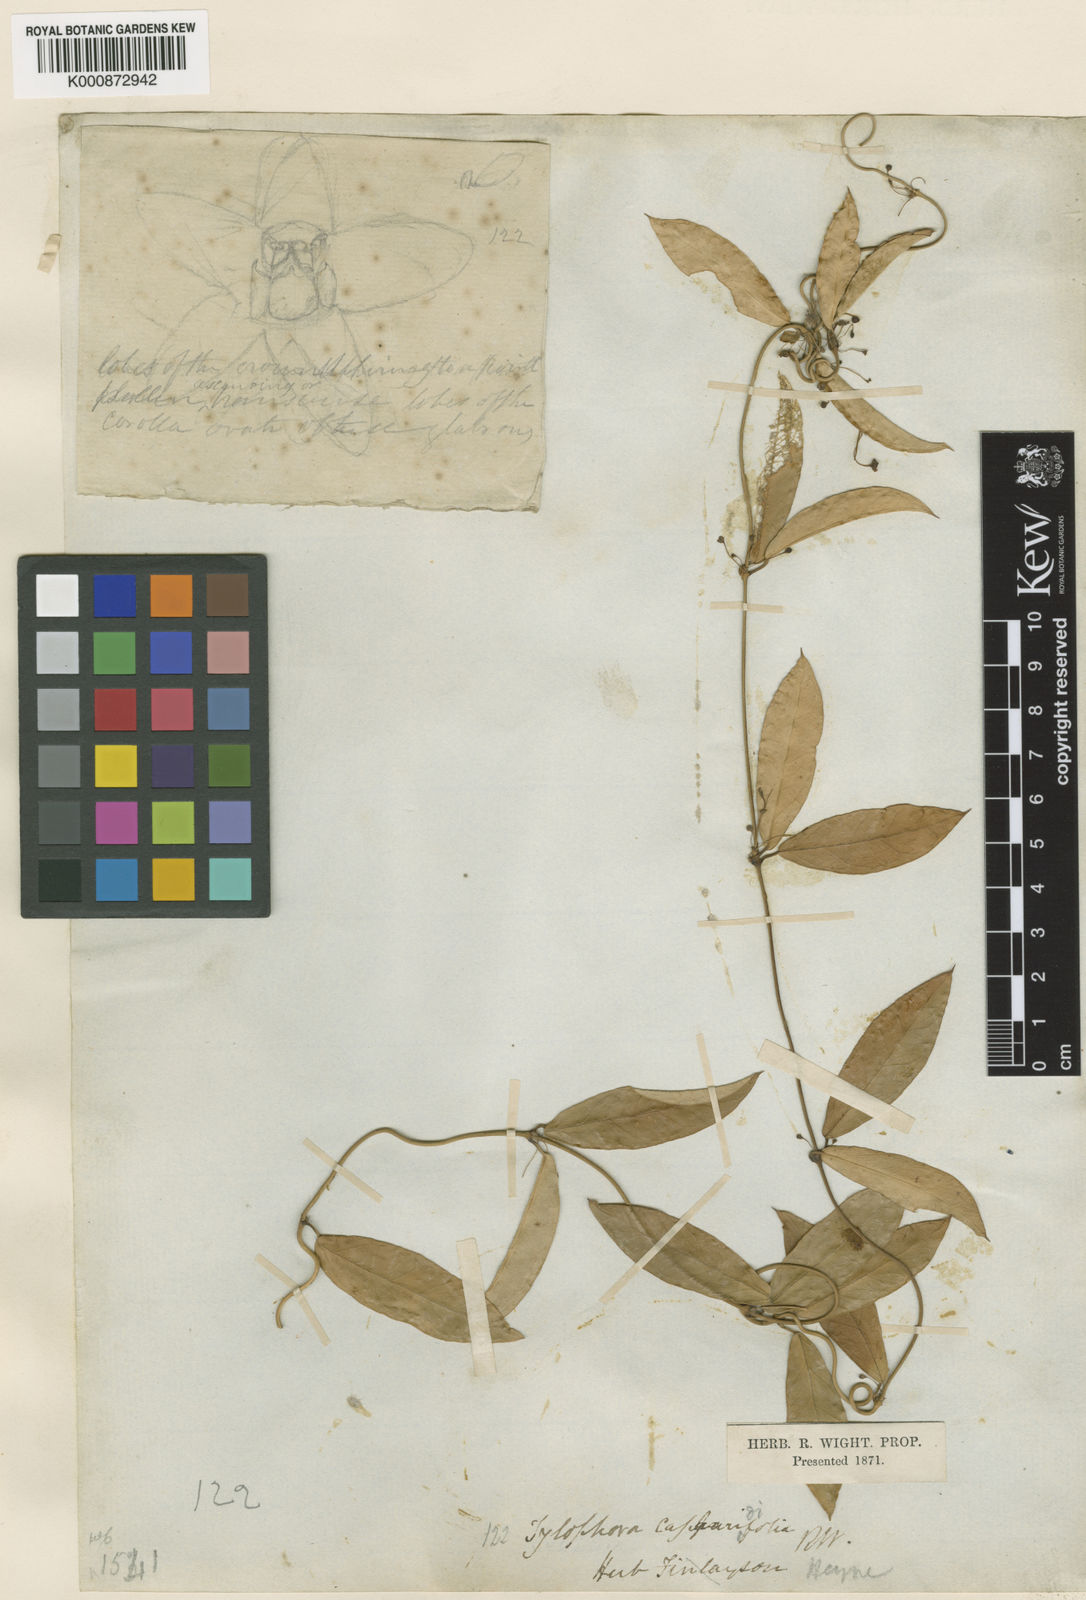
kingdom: Plantae
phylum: Tracheophyta
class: Magnoliopsida
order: Gentianales
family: Apocynaceae
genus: Vincetoxicum
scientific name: Vincetoxicum capparidifolium
